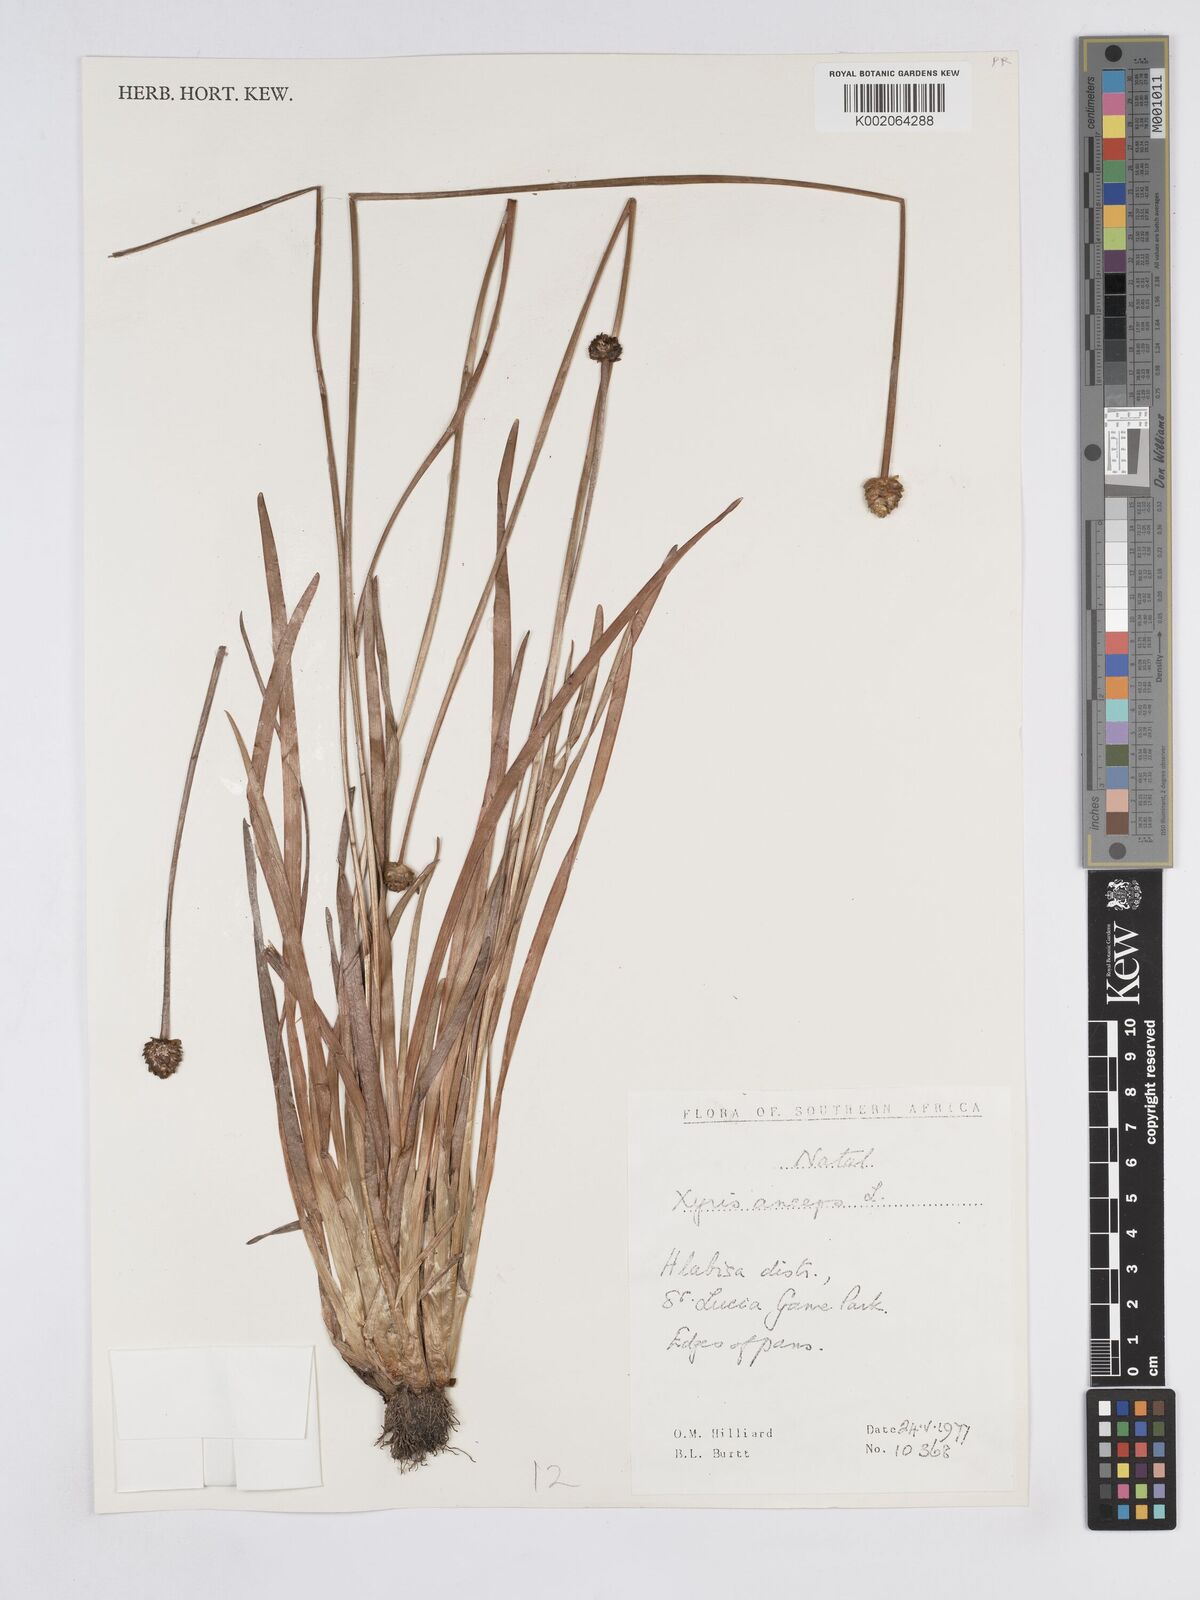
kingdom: Plantae
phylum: Tracheophyta
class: Liliopsida
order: Poales
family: Xyridaceae
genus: Xyris
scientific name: Xyris anceps
